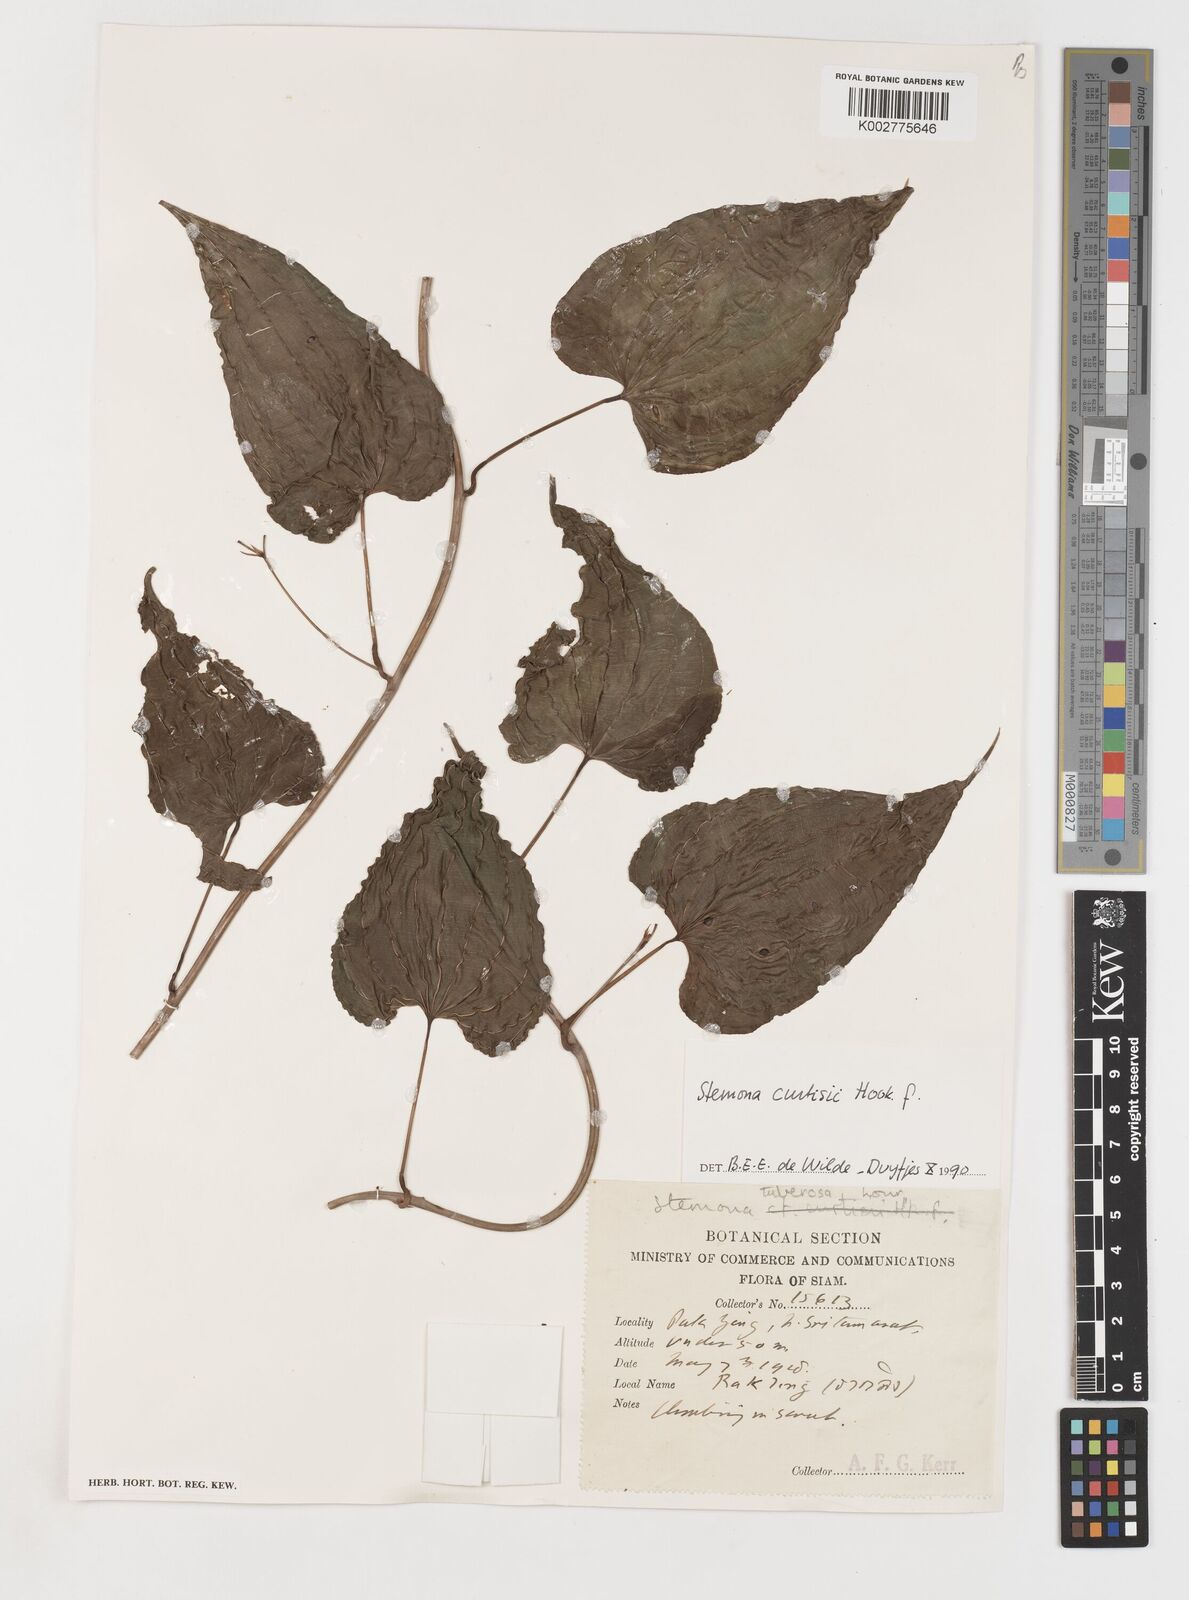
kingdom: Plantae
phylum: Tracheophyta
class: Liliopsida
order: Pandanales
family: Stemonaceae
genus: Stemona
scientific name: Stemona curtisii
